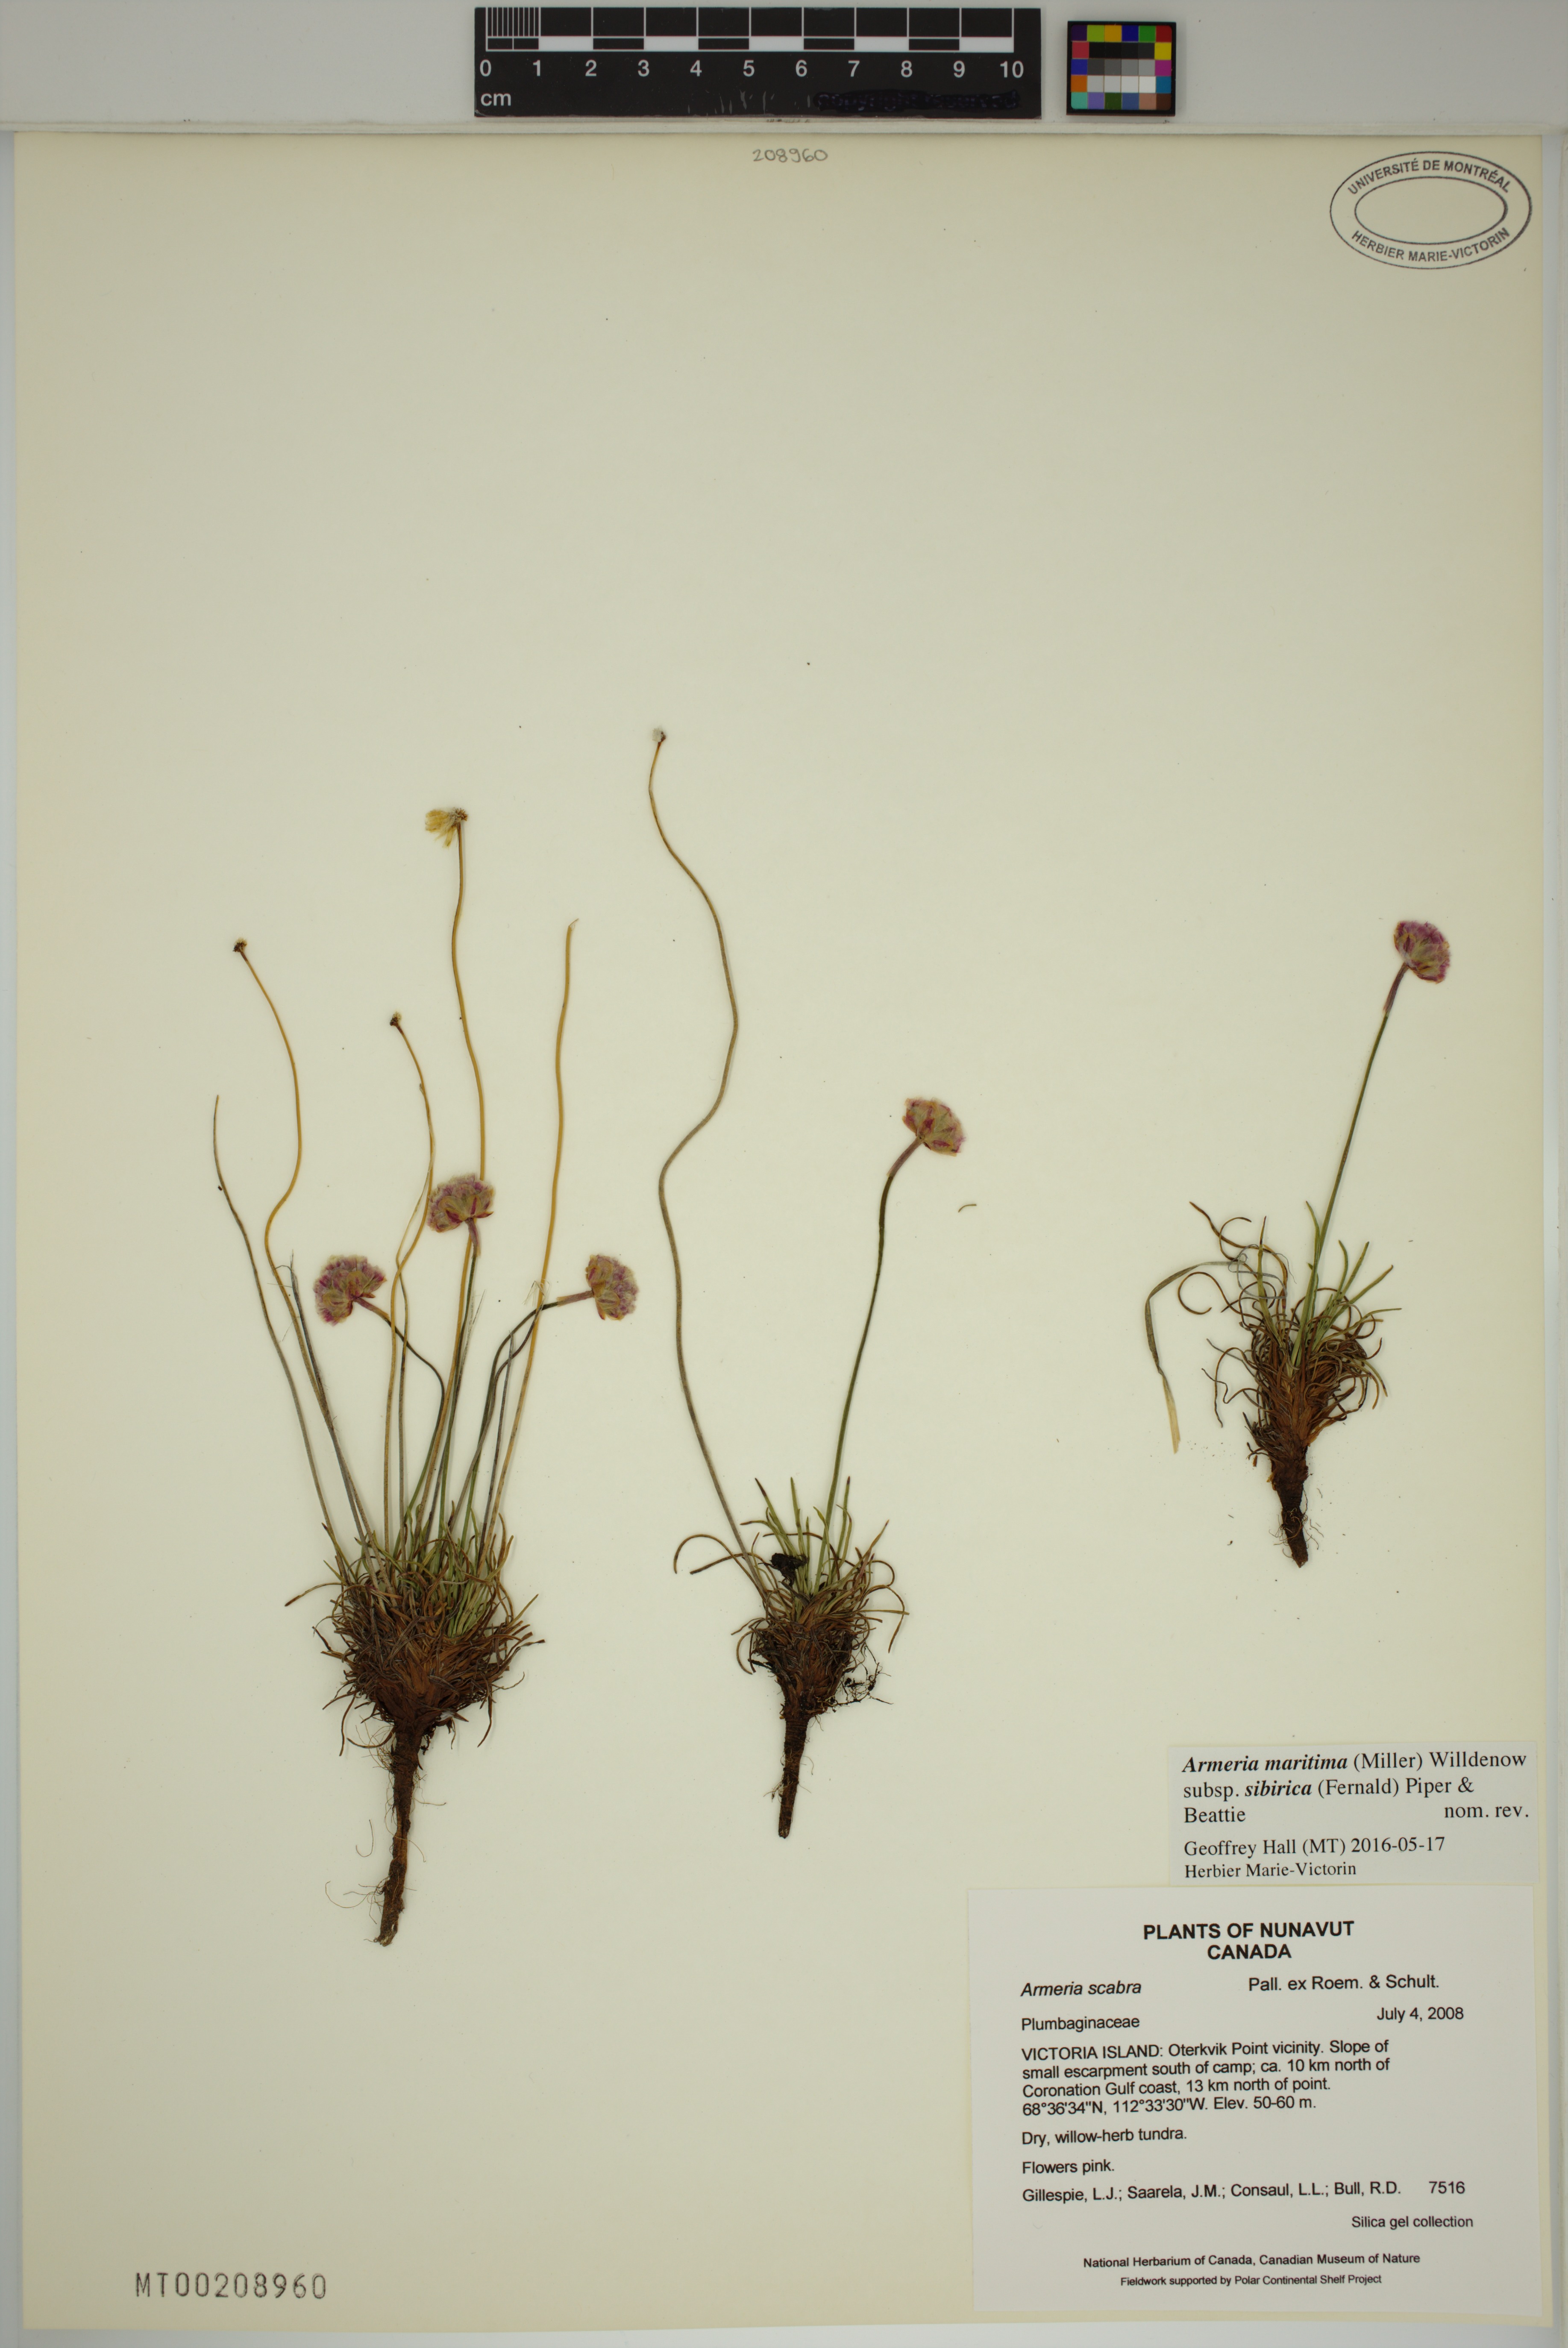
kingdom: Plantae
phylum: Tracheophyta
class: Magnoliopsida
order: Caryophyllales
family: Plumbaginaceae
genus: Armeria
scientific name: Armeria maritima
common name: Thrift
